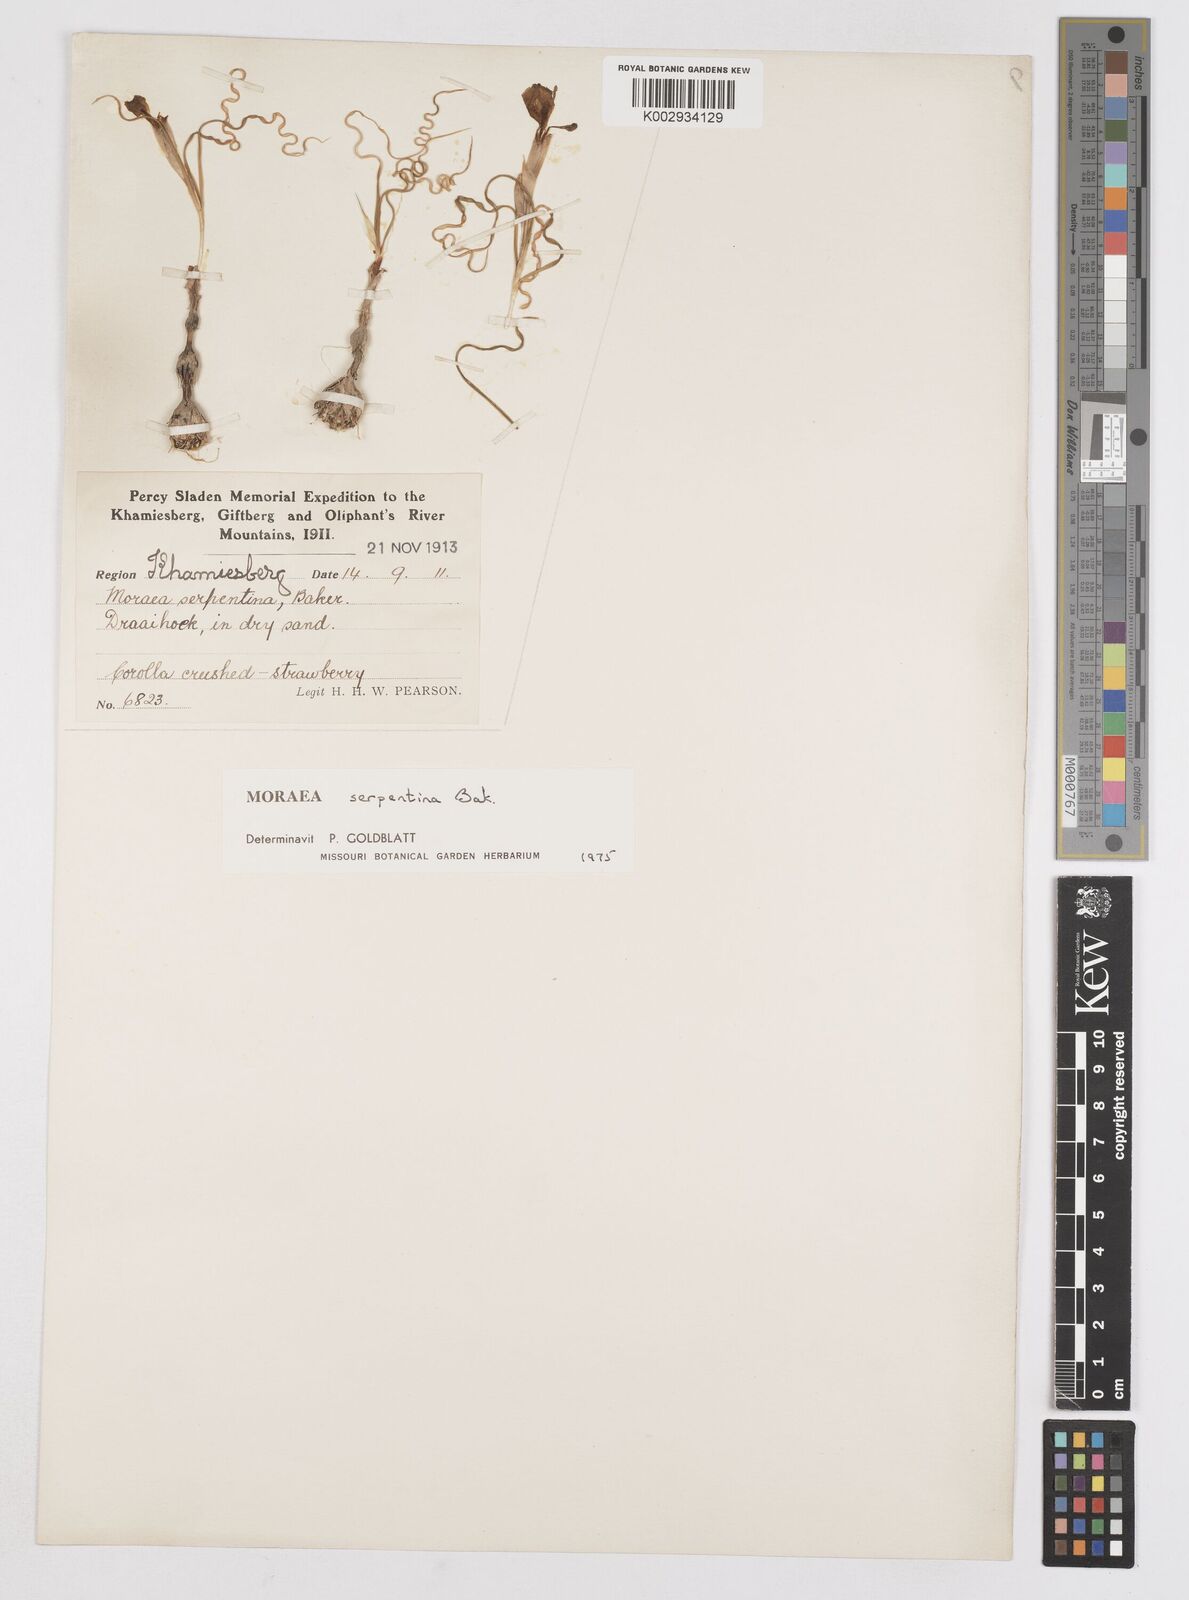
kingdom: Plantae
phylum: Tracheophyta
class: Liliopsida
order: Asparagales
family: Iridaceae
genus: Moraea
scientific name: Moraea serpentina
